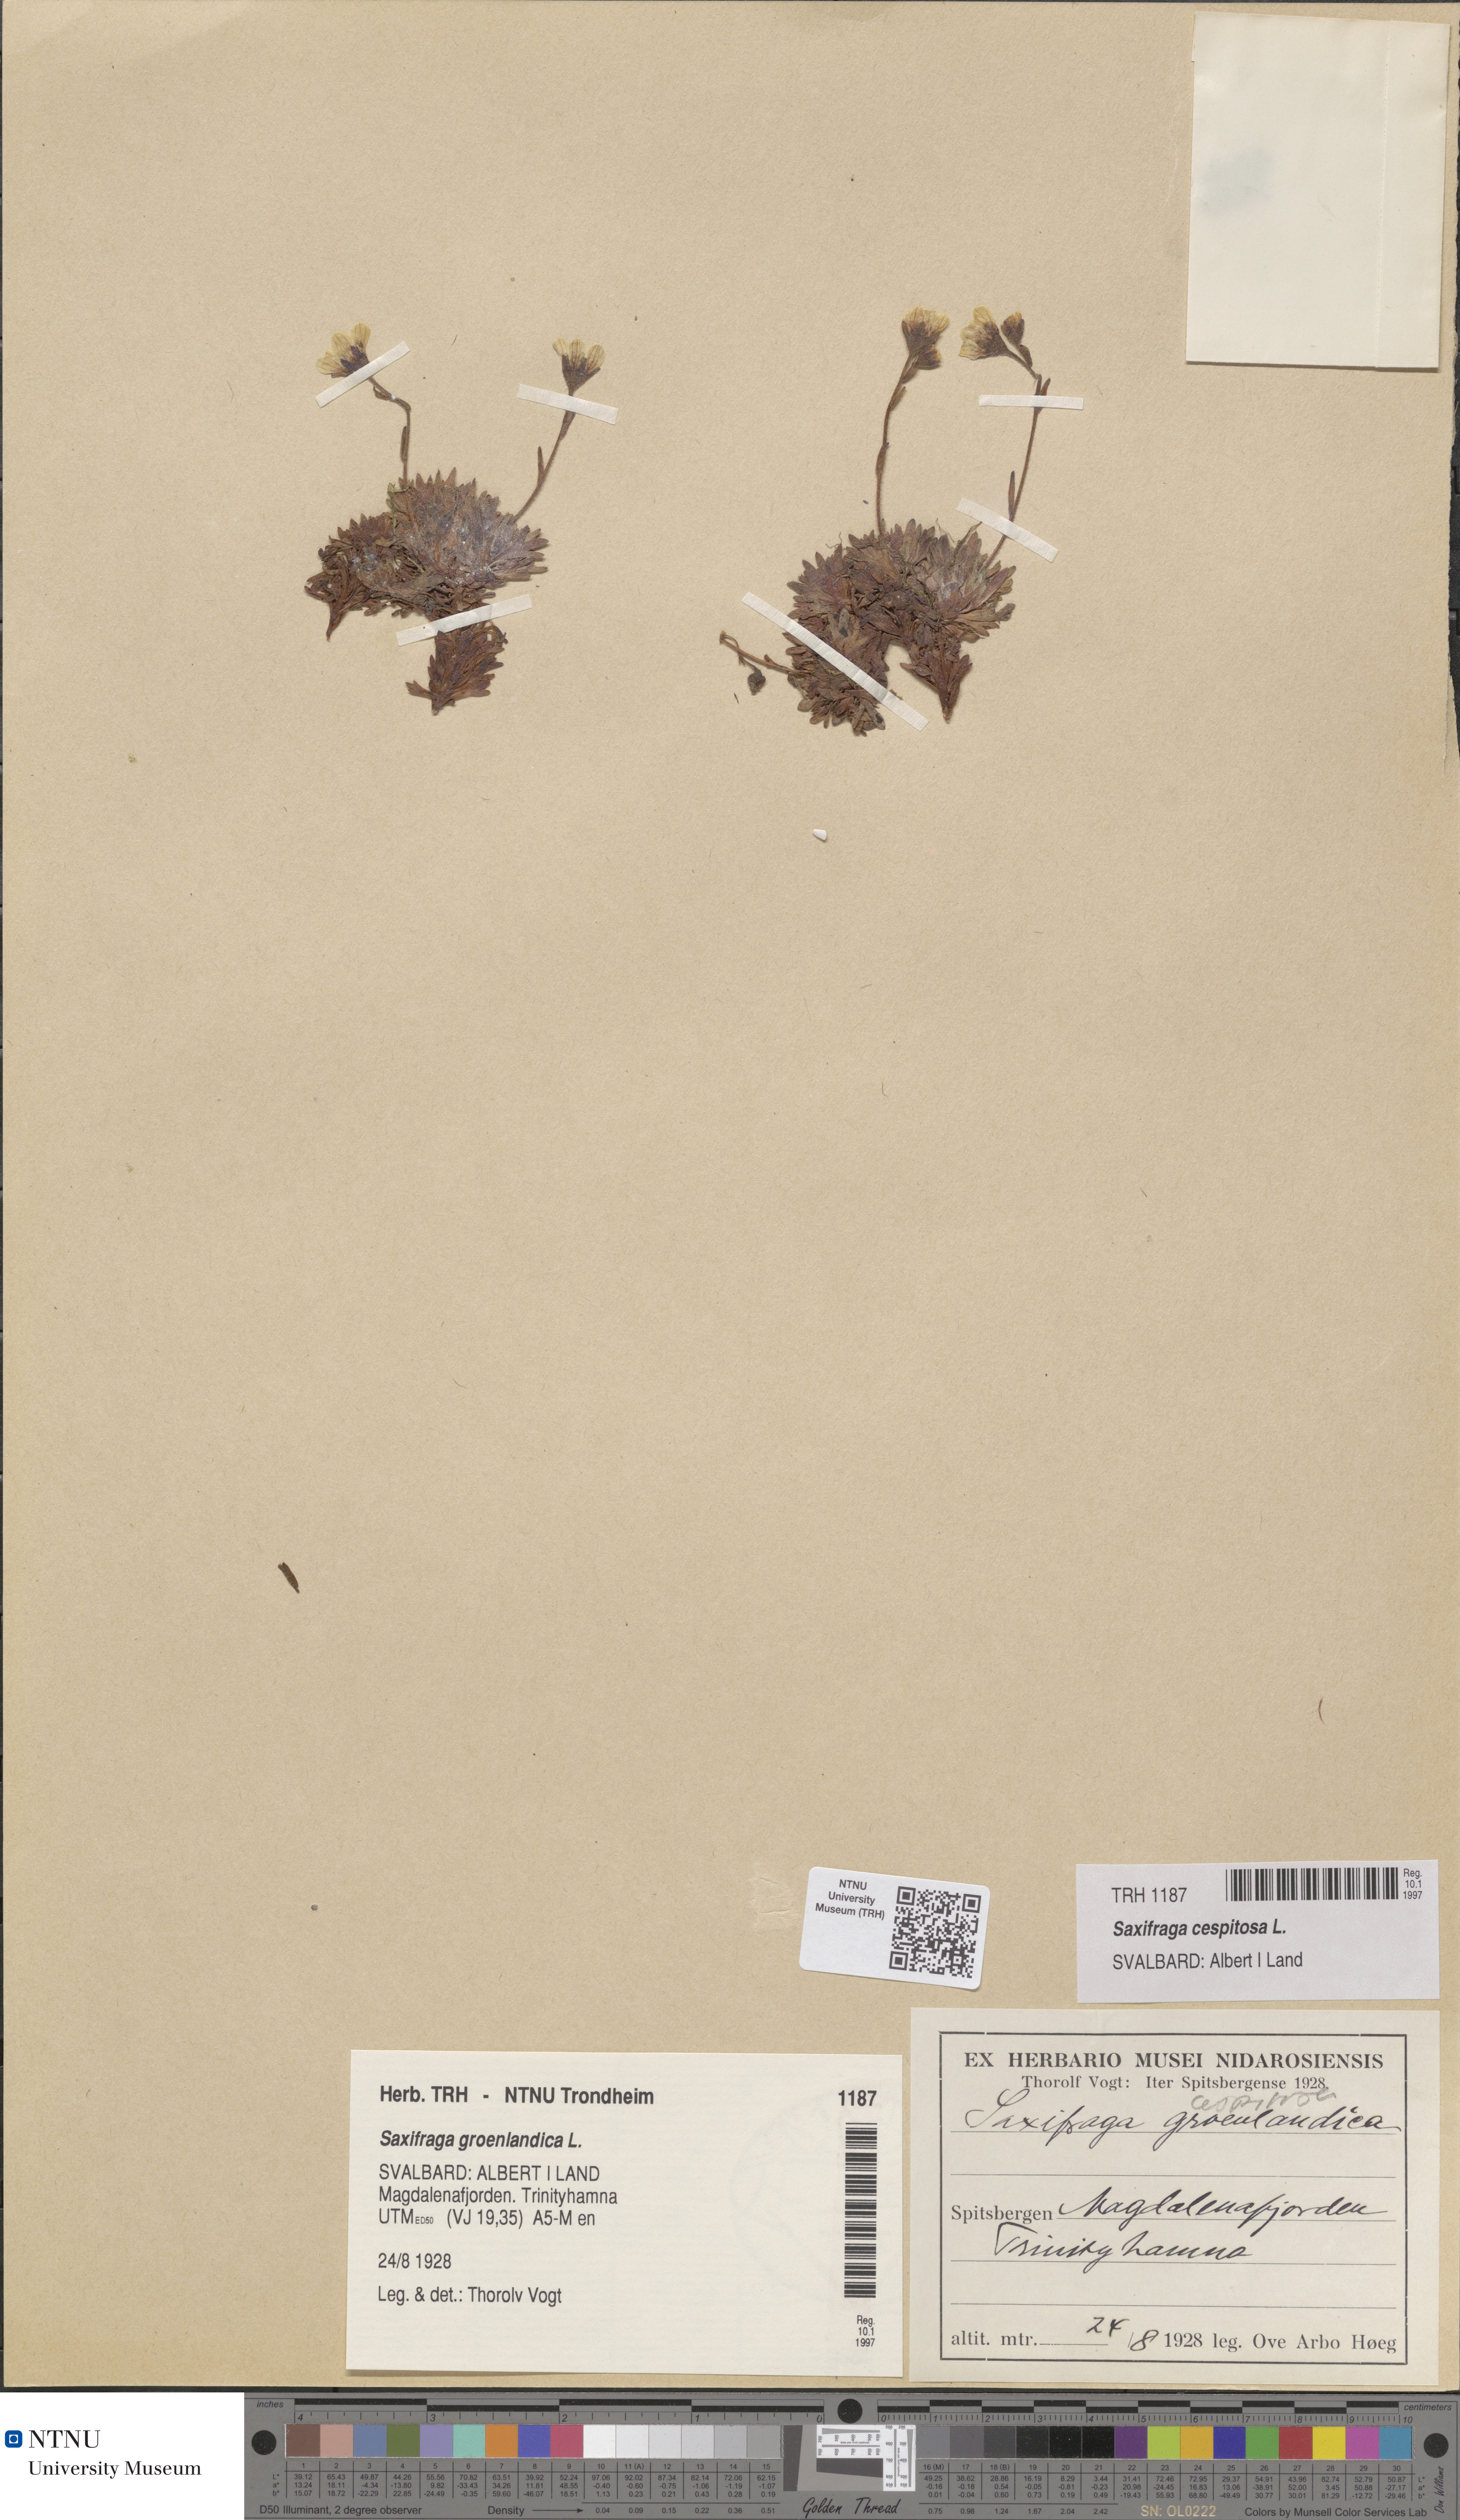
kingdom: Plantae
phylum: Tracheophyta
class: Magnoliopsida
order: Saxifragales
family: Saxifragaceae
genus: Saxifraga
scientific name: Saxifraga cespitosa
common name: Tufted saxifrage
